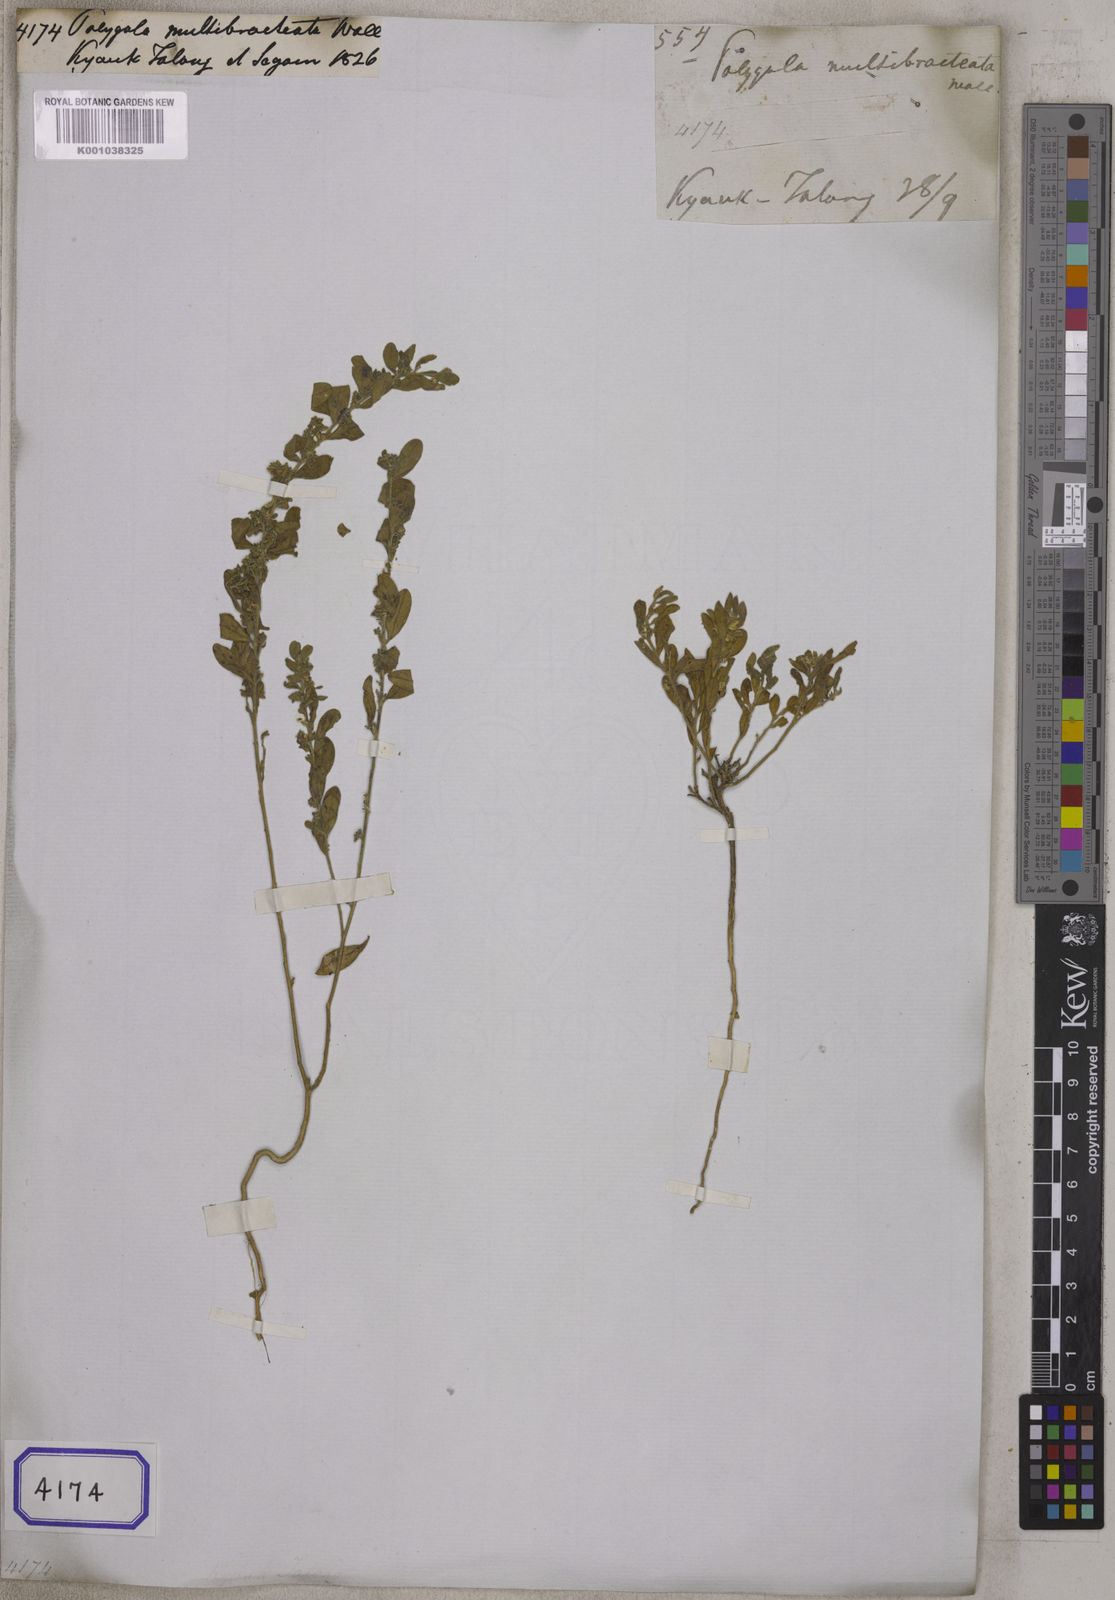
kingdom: Plantae
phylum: Tracheophyta
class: Magnoliopsida
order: Fabales
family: Polygalaceae
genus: Polygala
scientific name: Polygala erioptera
